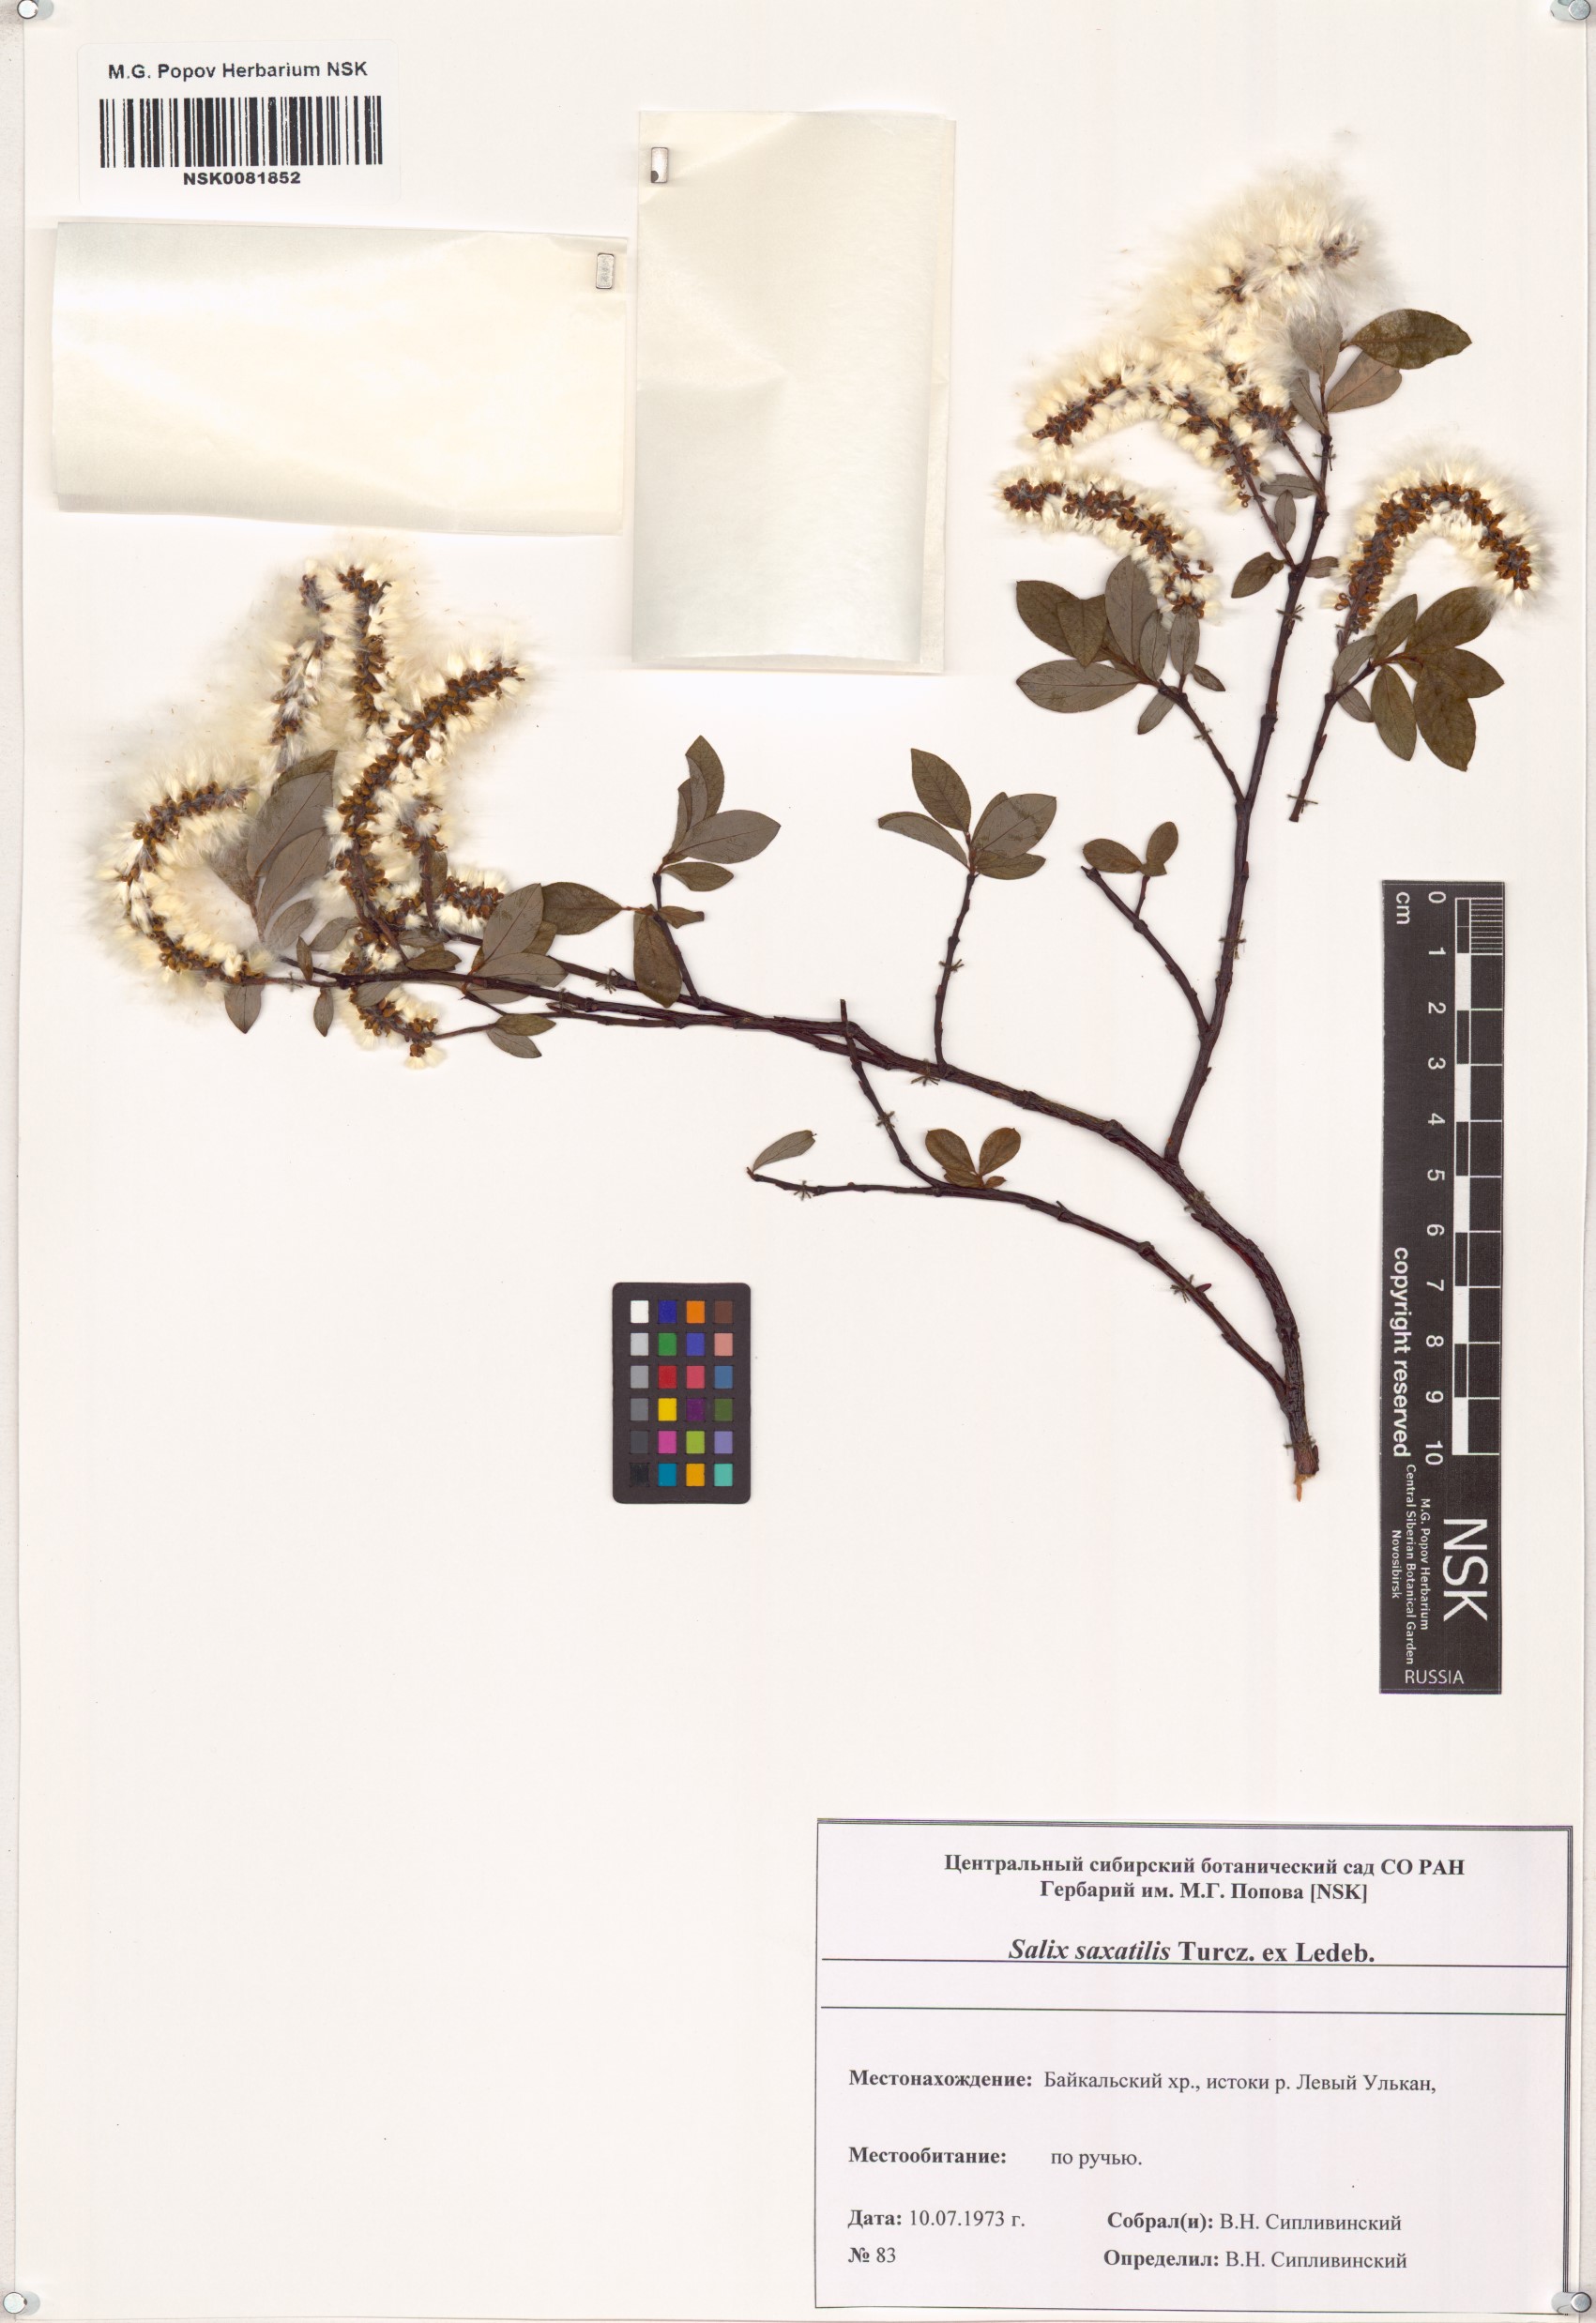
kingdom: Plantae
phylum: Tracheophyta
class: Magnoliopsida
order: Malpighiales
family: Salicaceae
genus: Salix
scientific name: Salix saxatilis
